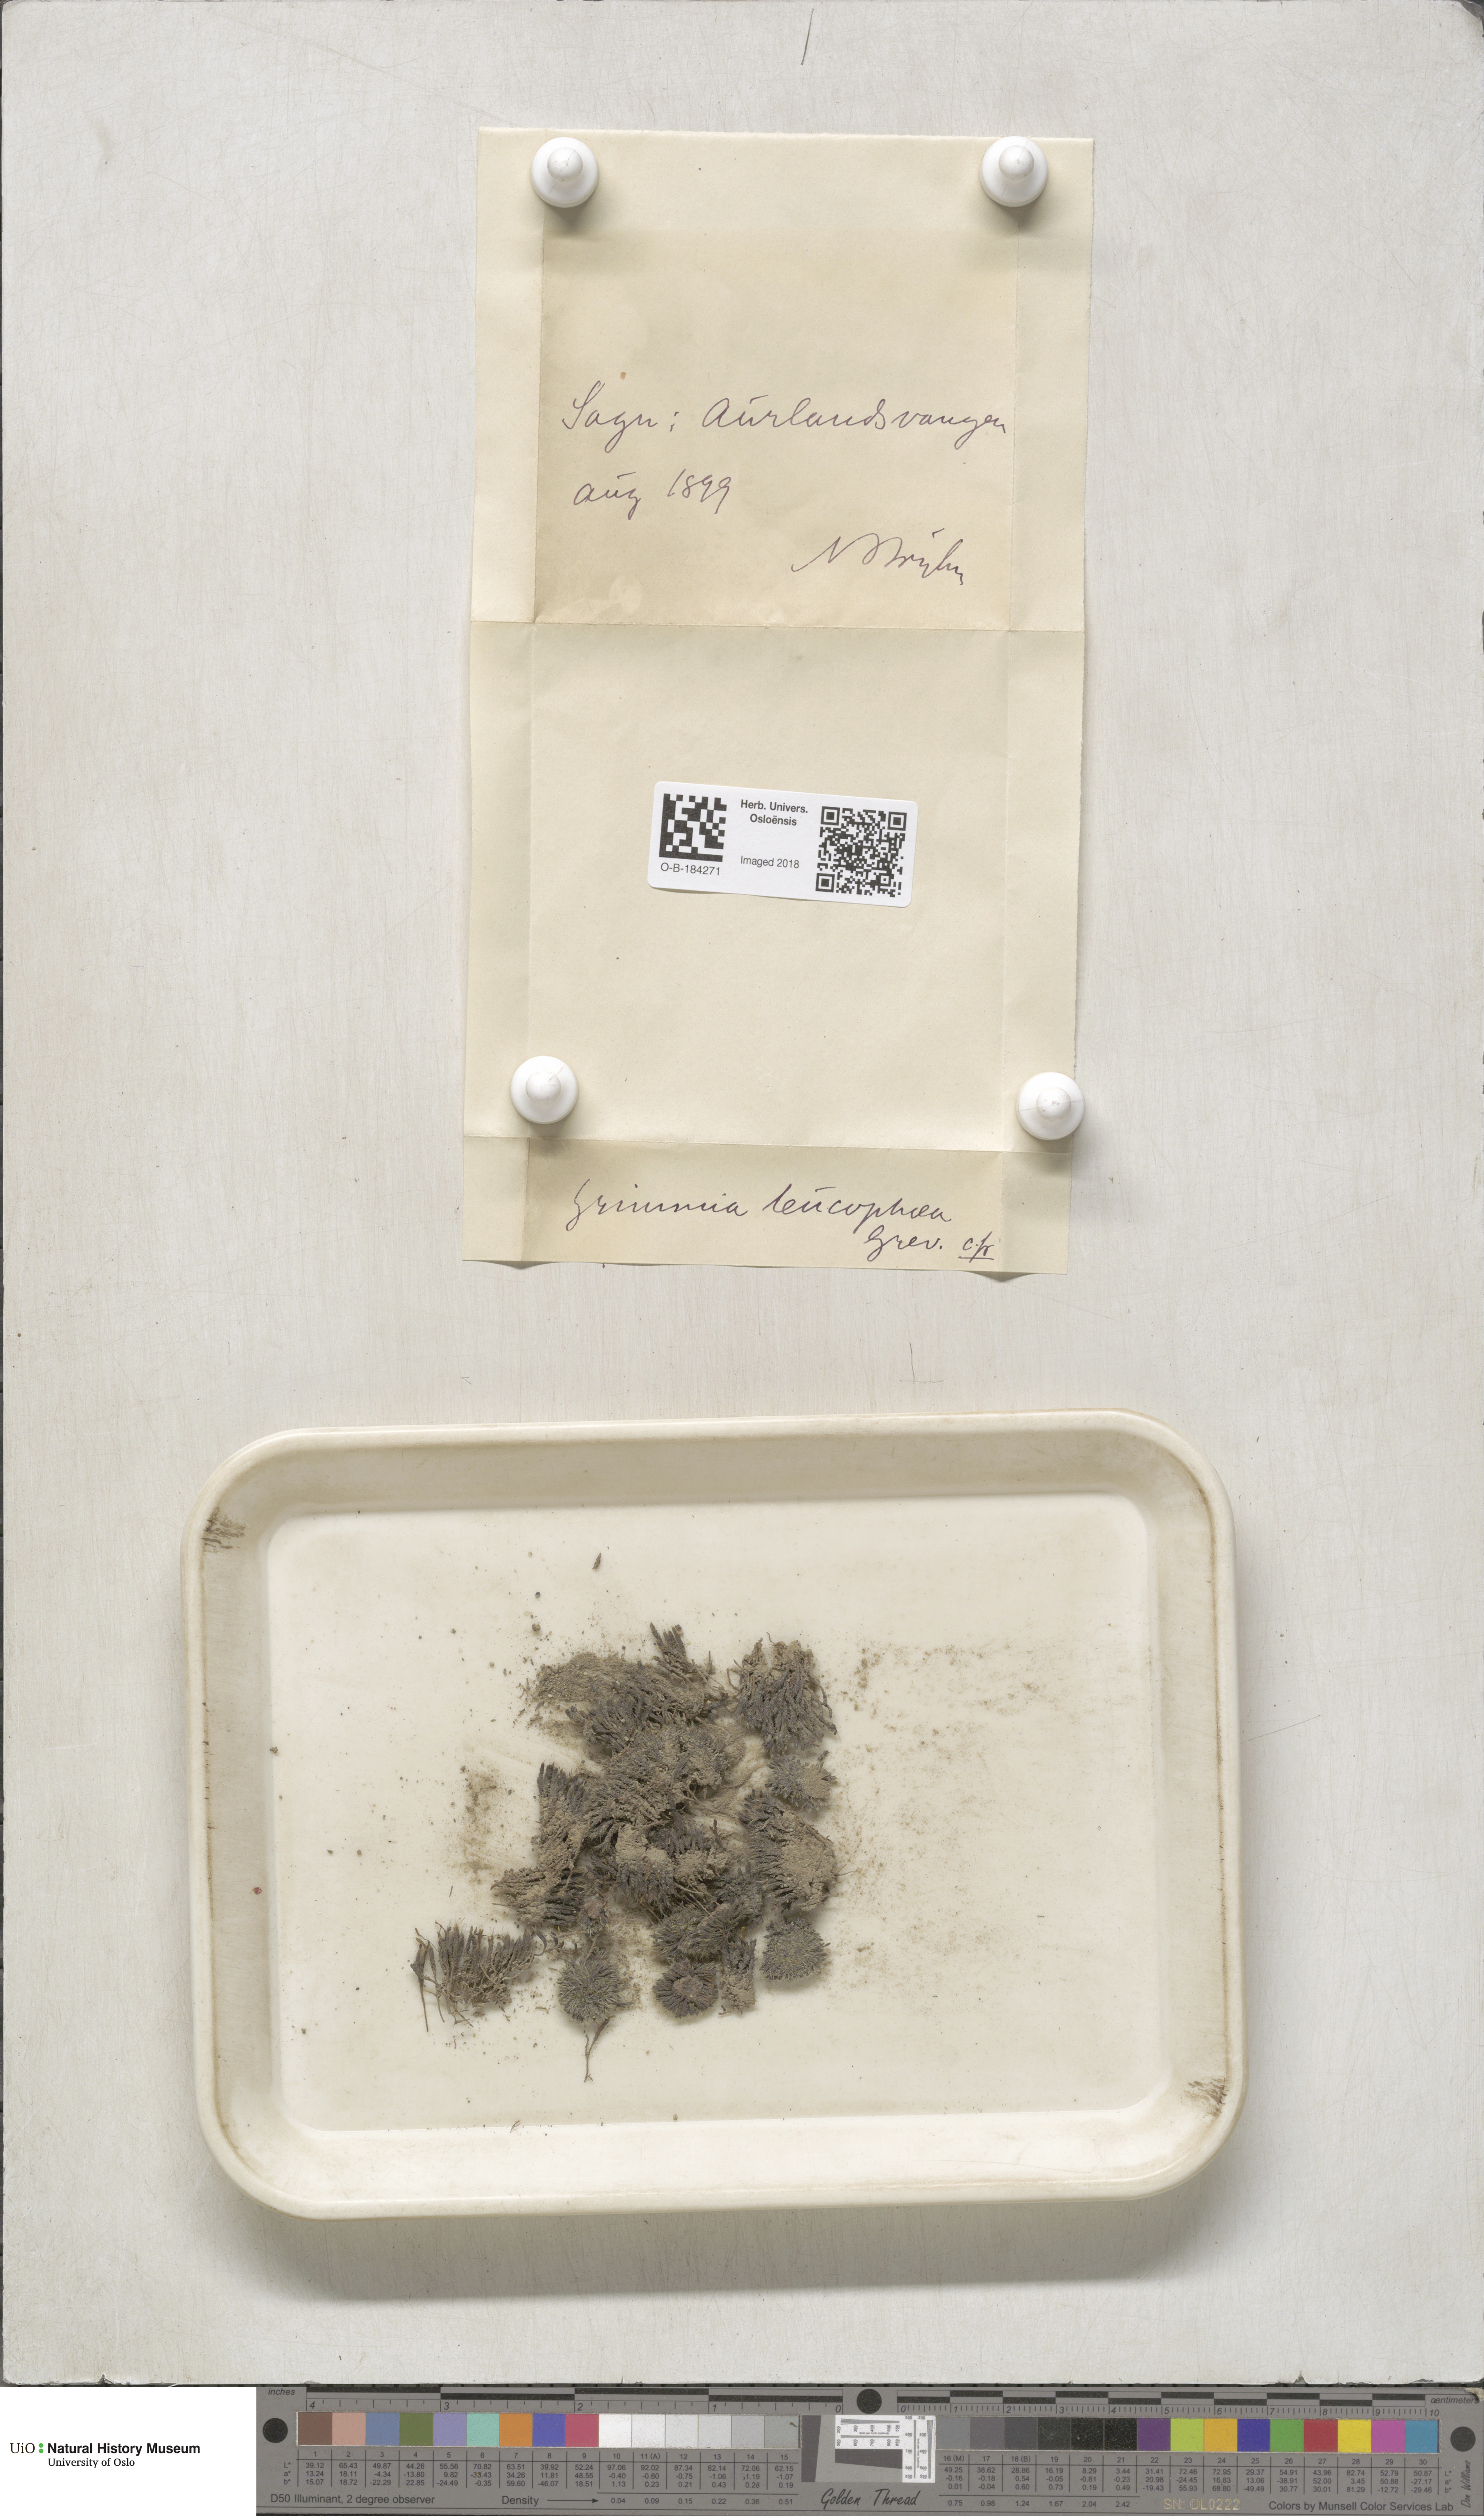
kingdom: Plantae
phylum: Bryophyta
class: Bryopsida
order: Grimmiales
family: Grimmiaceae
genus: Schistidium
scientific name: Schistidium maritimum
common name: Seaside bloom moss
